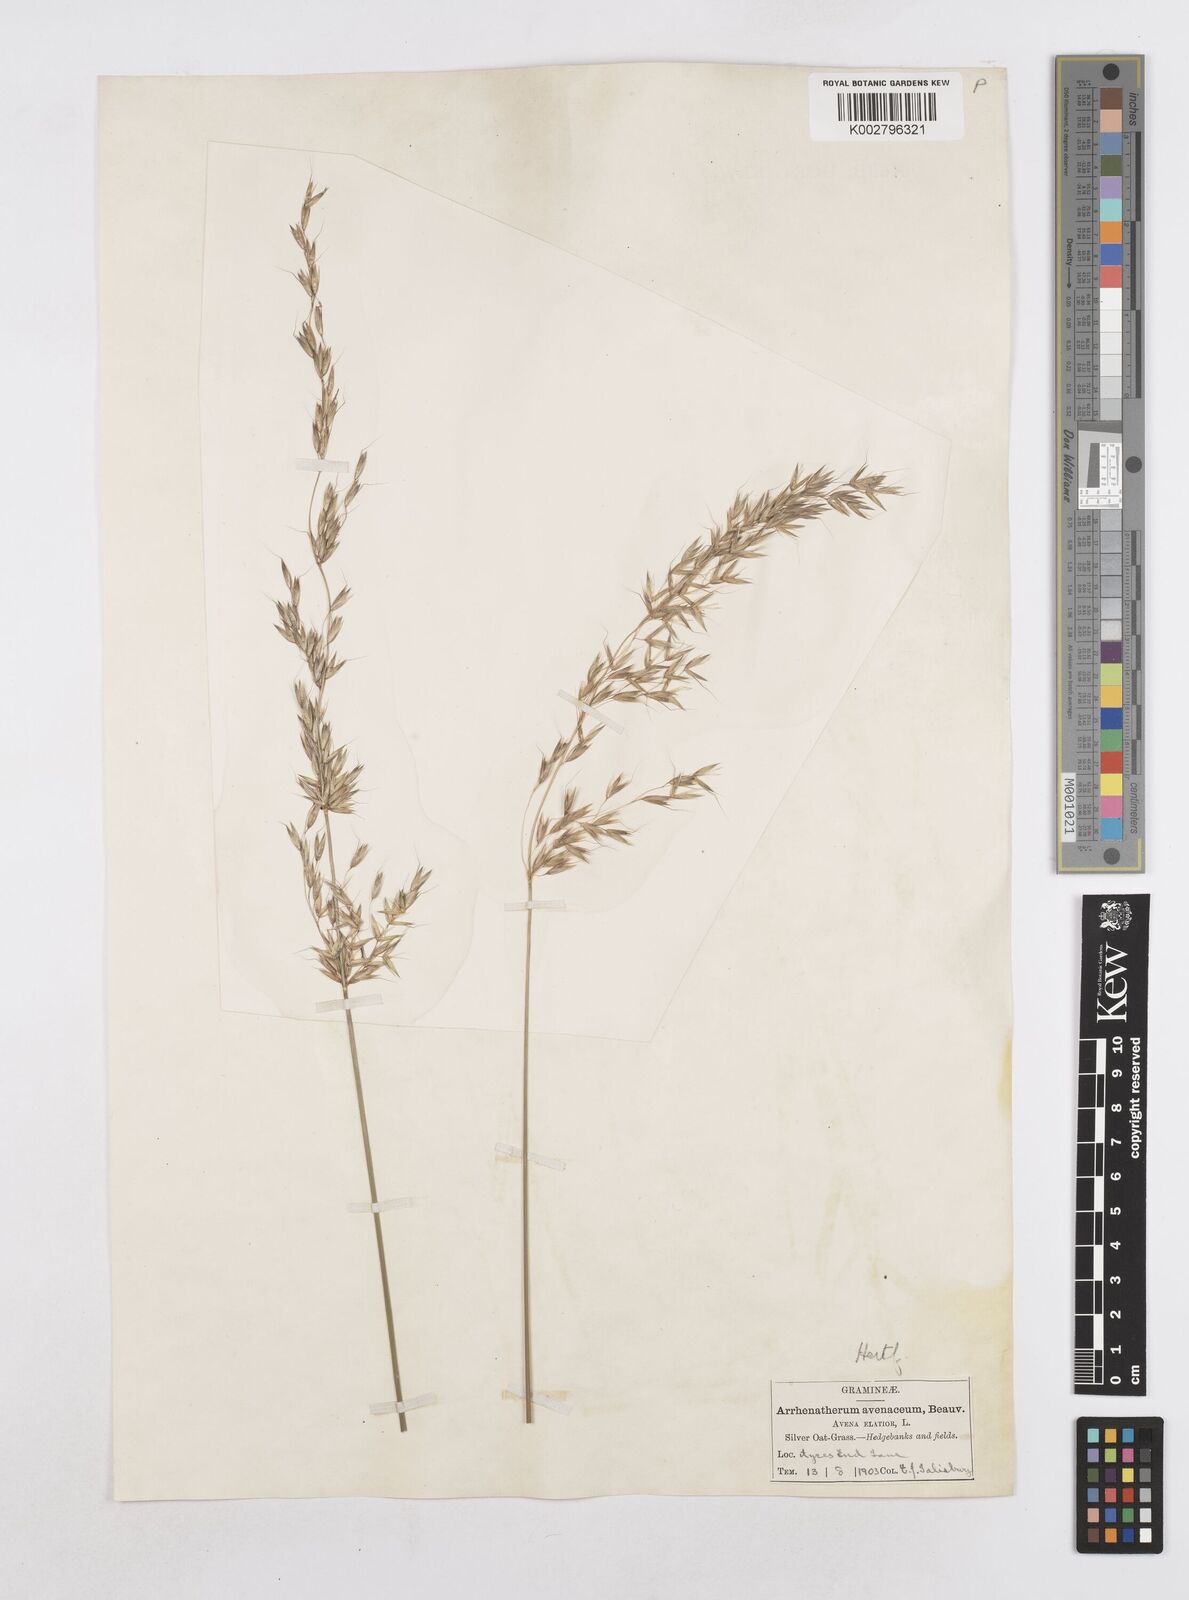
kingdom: Plantae
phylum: Tracheophyta
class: Liliopsida
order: Poales
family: Poaceae
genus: Arrhenatherum
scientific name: Arrhenatherum elatius
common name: Tall oatgrass
